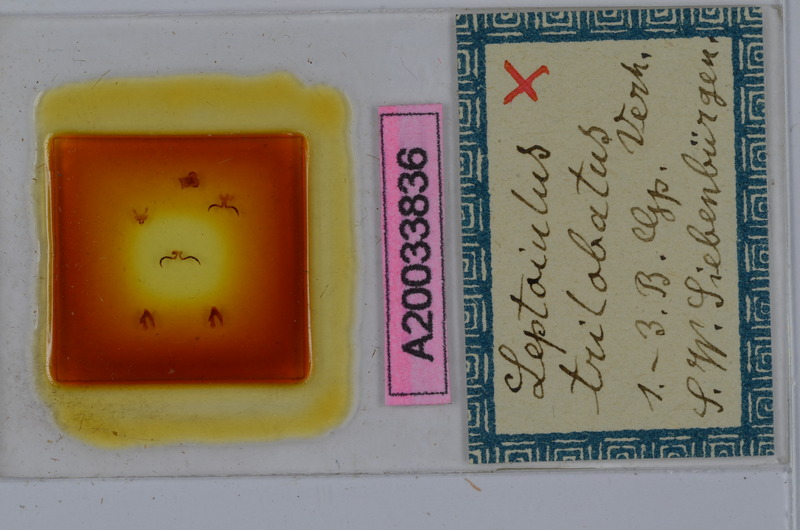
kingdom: Animalia
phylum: Arthropoda
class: Diplopoda
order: Julida
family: Julidae
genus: Leptoiulus
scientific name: Leptoiulus trilobatus
